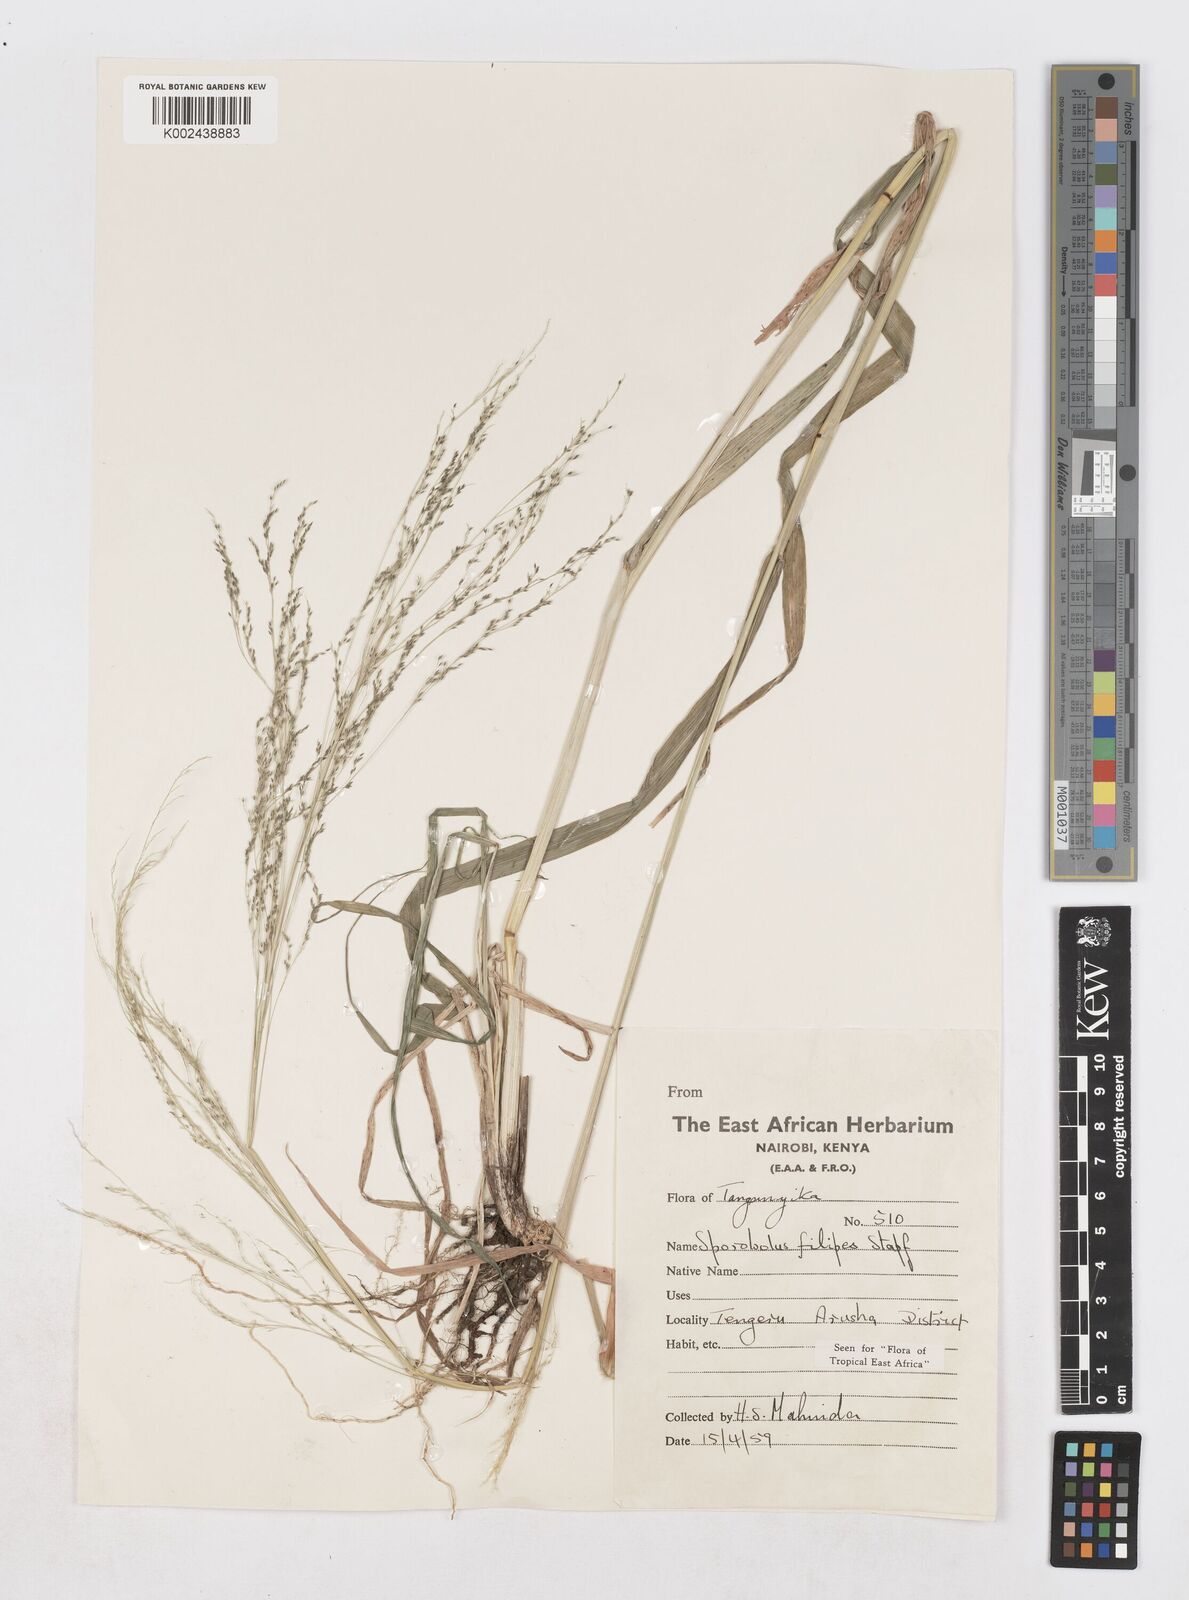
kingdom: Plantae
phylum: Tracheophyta
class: Liliopsida
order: Poales
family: Poaceae
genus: Sporobolus
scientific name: Sporobolus agrostoides
